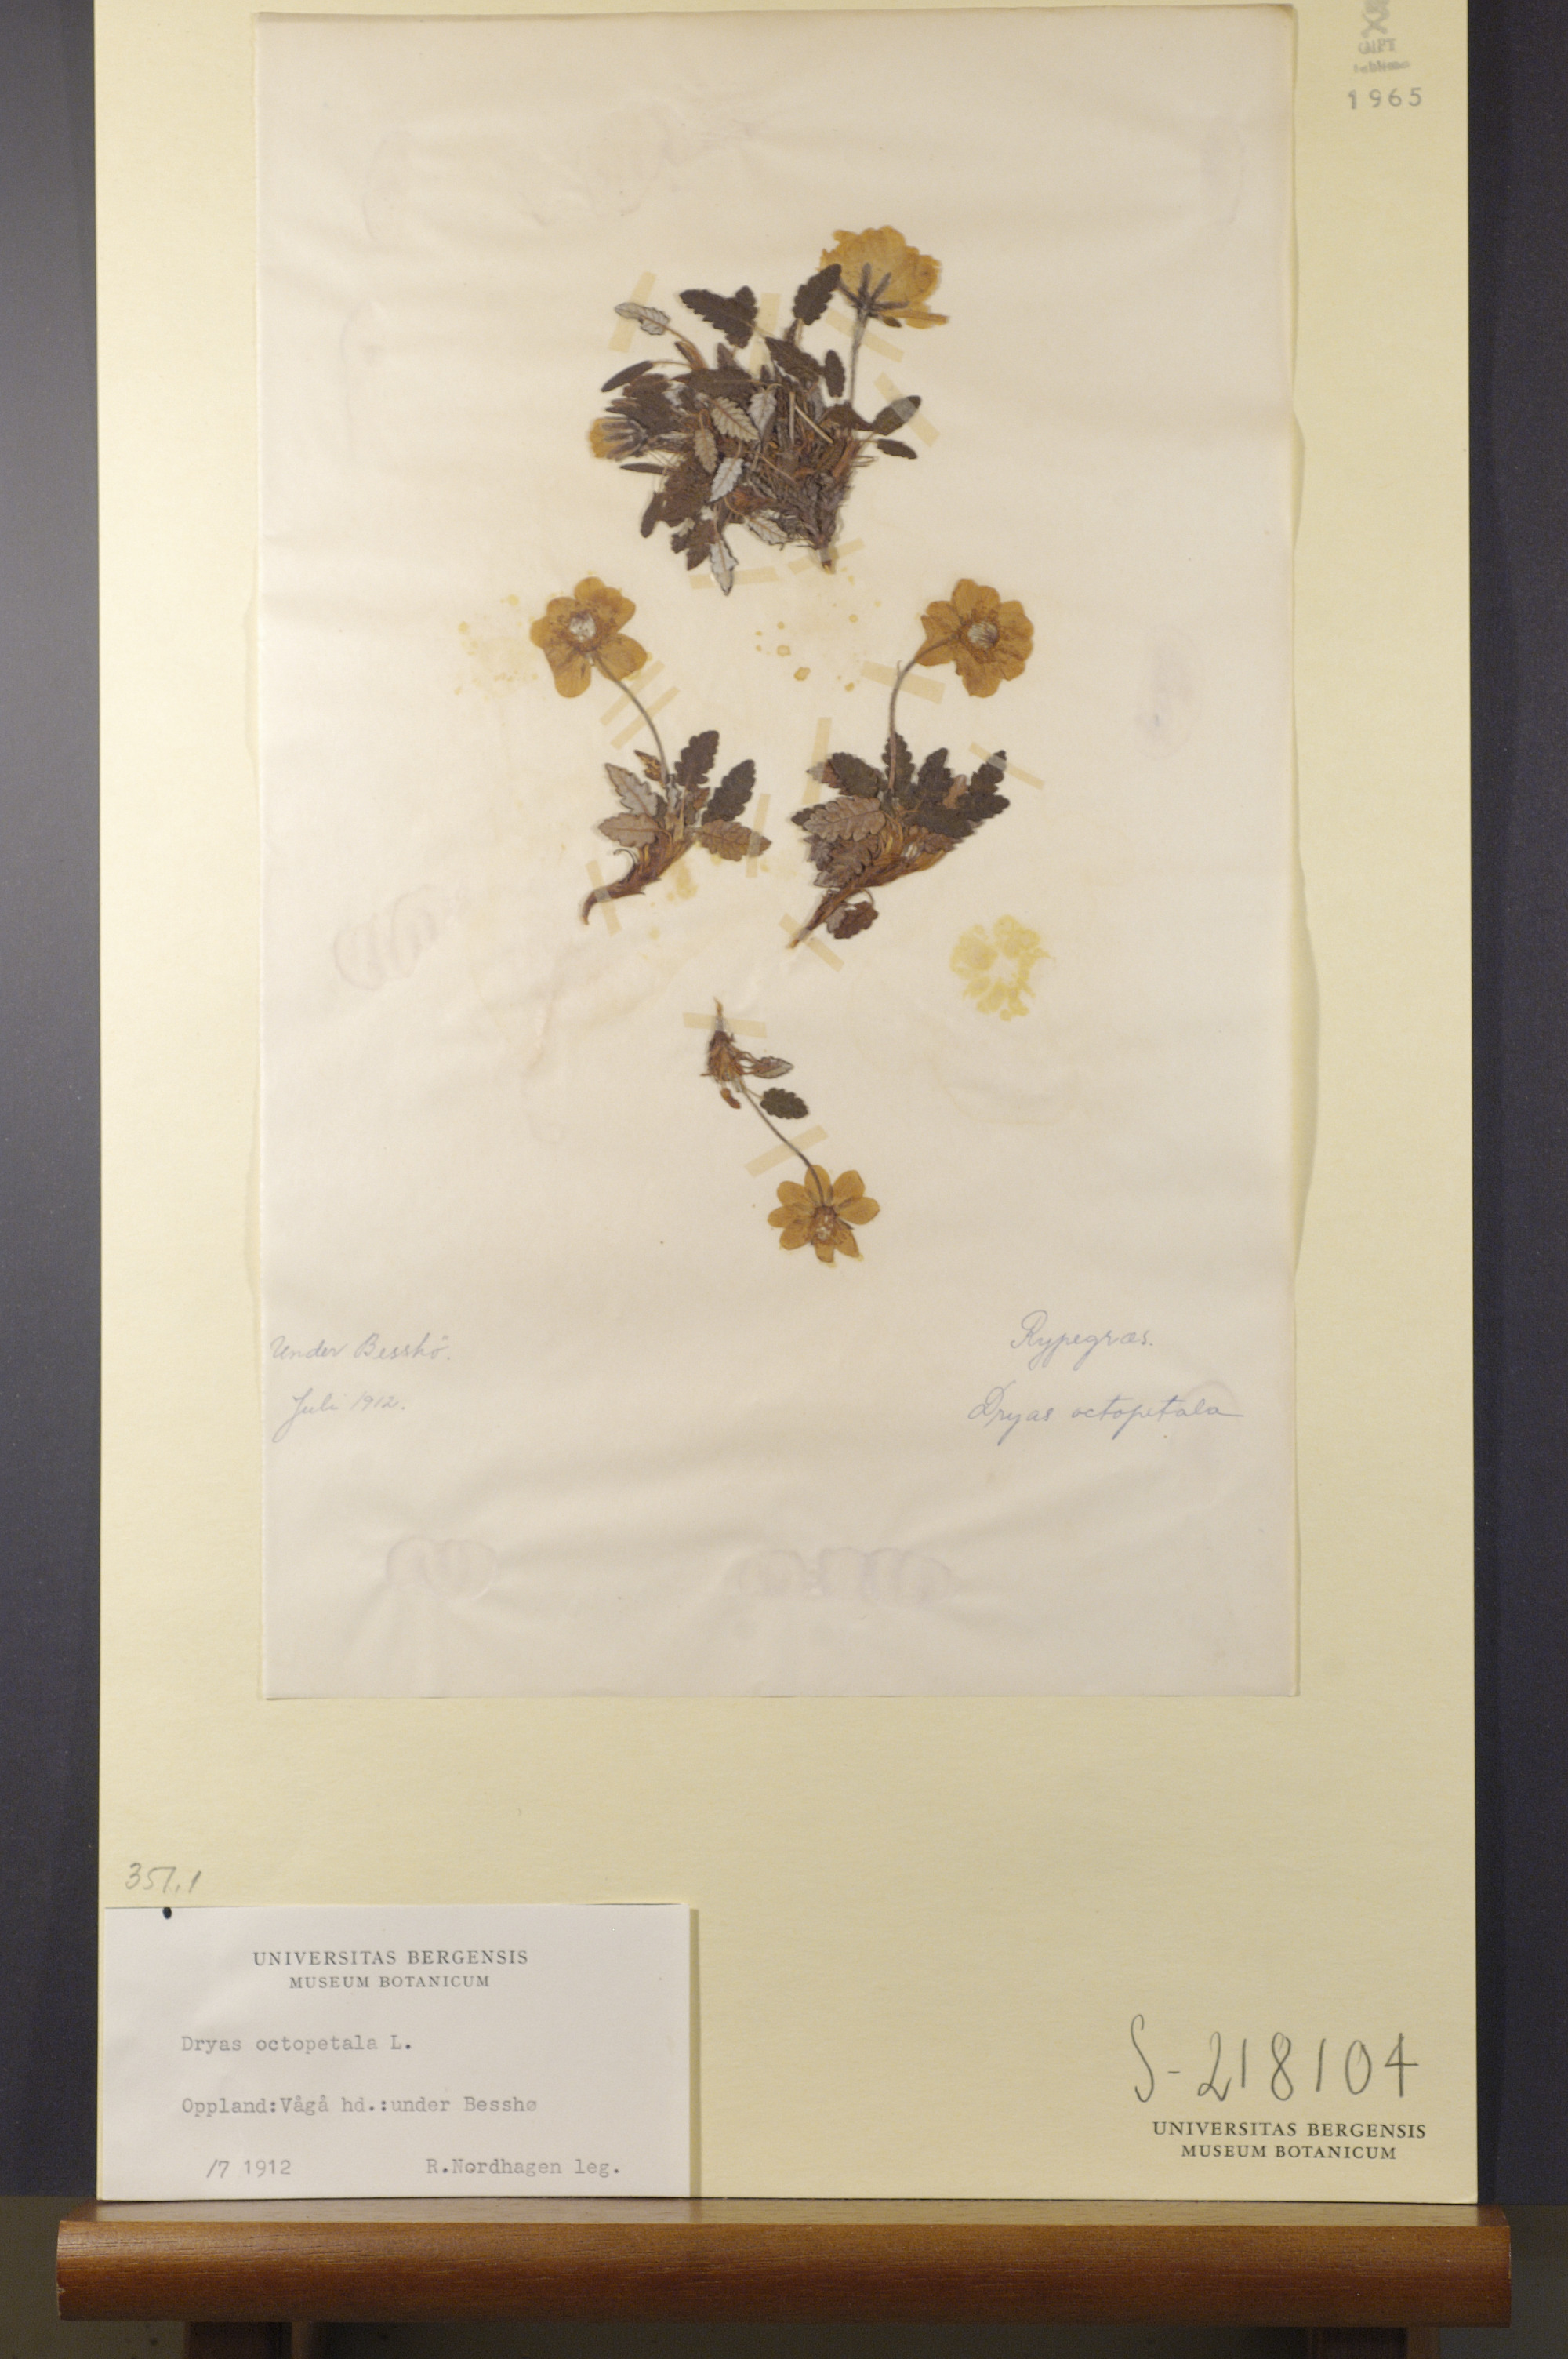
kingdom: Plantae
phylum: Tracheophyta
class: Magnoliopsida
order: Rosales
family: Rosaceae
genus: Dryas
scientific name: Dryas octopetala
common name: Eight-petal mountain-avens
